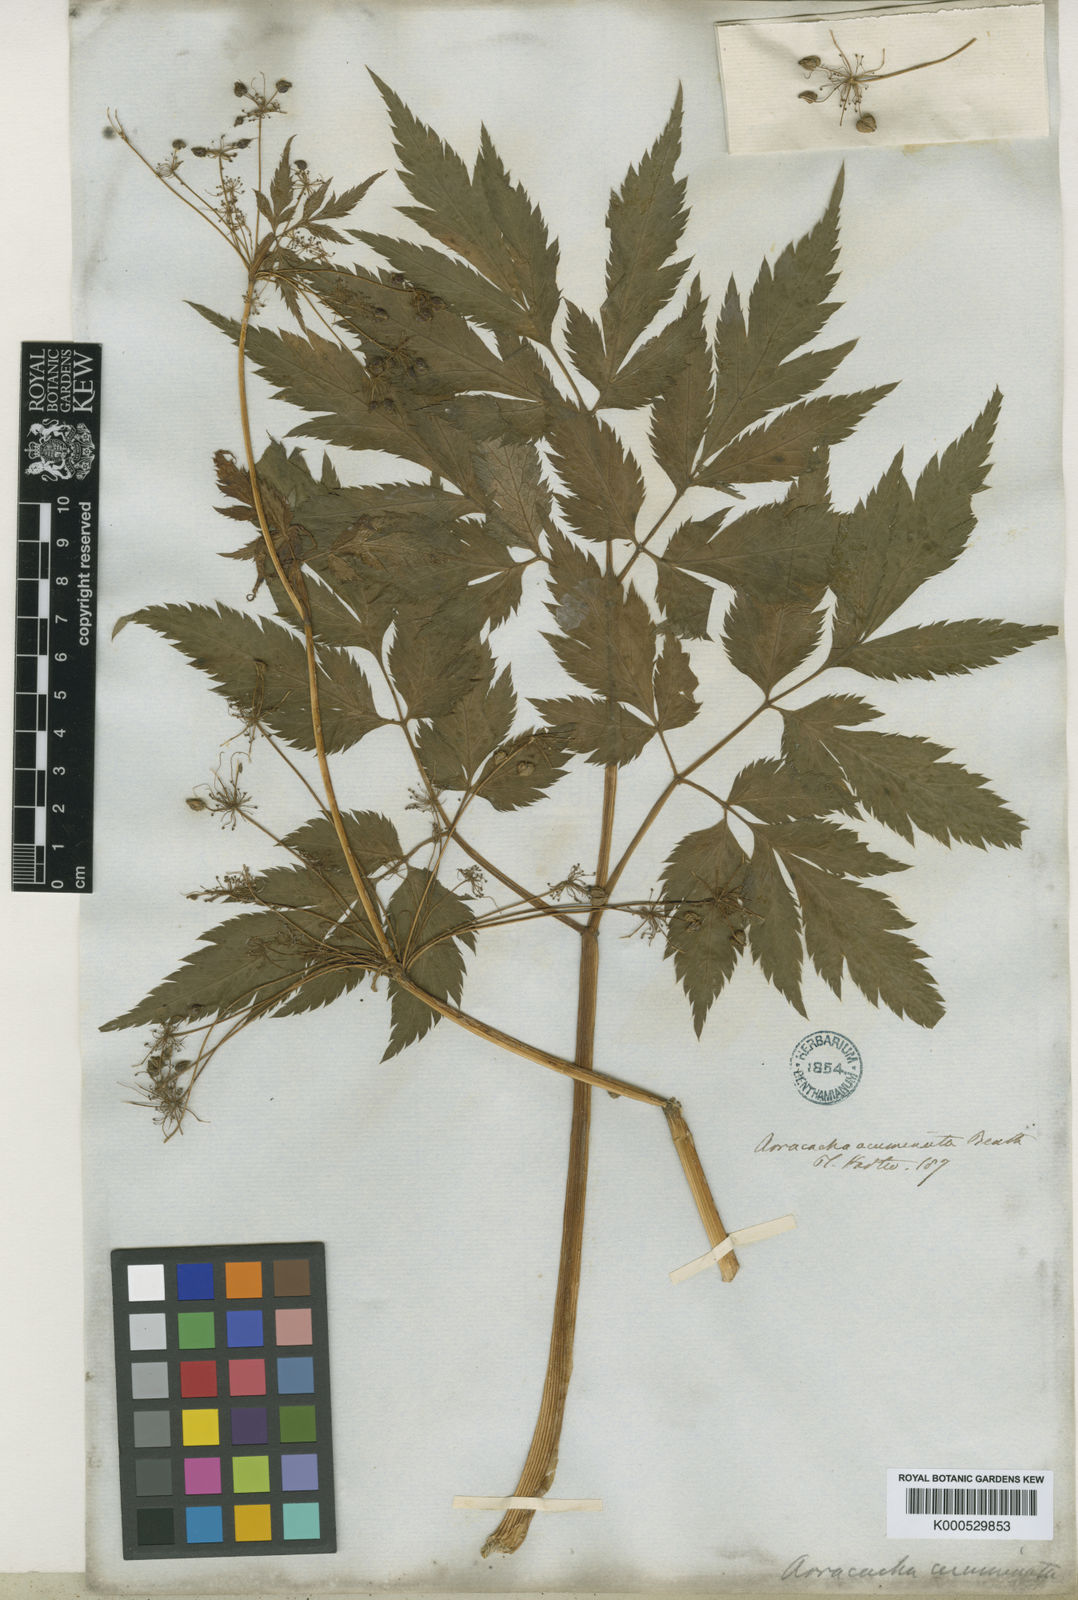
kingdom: Plantae
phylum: Tracheophyta
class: Magnoliopsida
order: Apiales
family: Apiaceae
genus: Neonelsonia
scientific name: Neonelsonia
